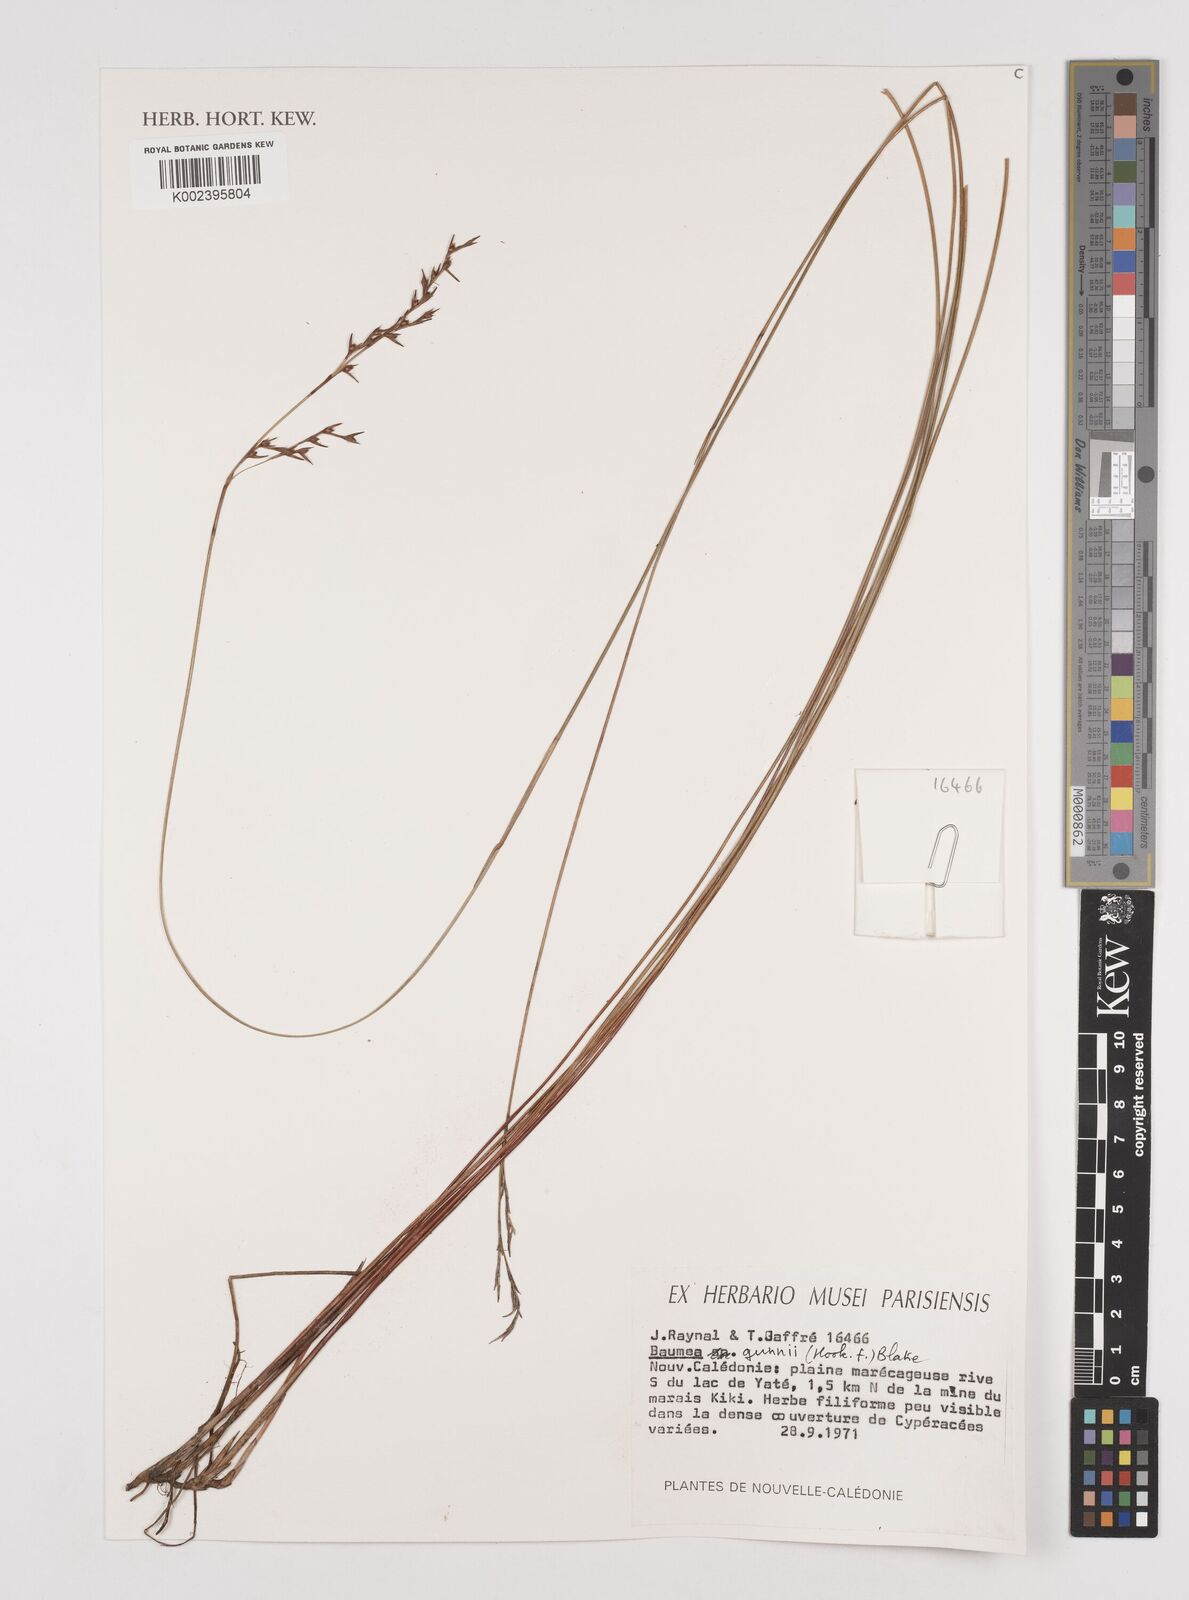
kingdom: Plantae
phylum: Tracheophyta
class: Liliopsida
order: Poales
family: Cyperaceae
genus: Machaerina
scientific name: Machaerina gunnii
